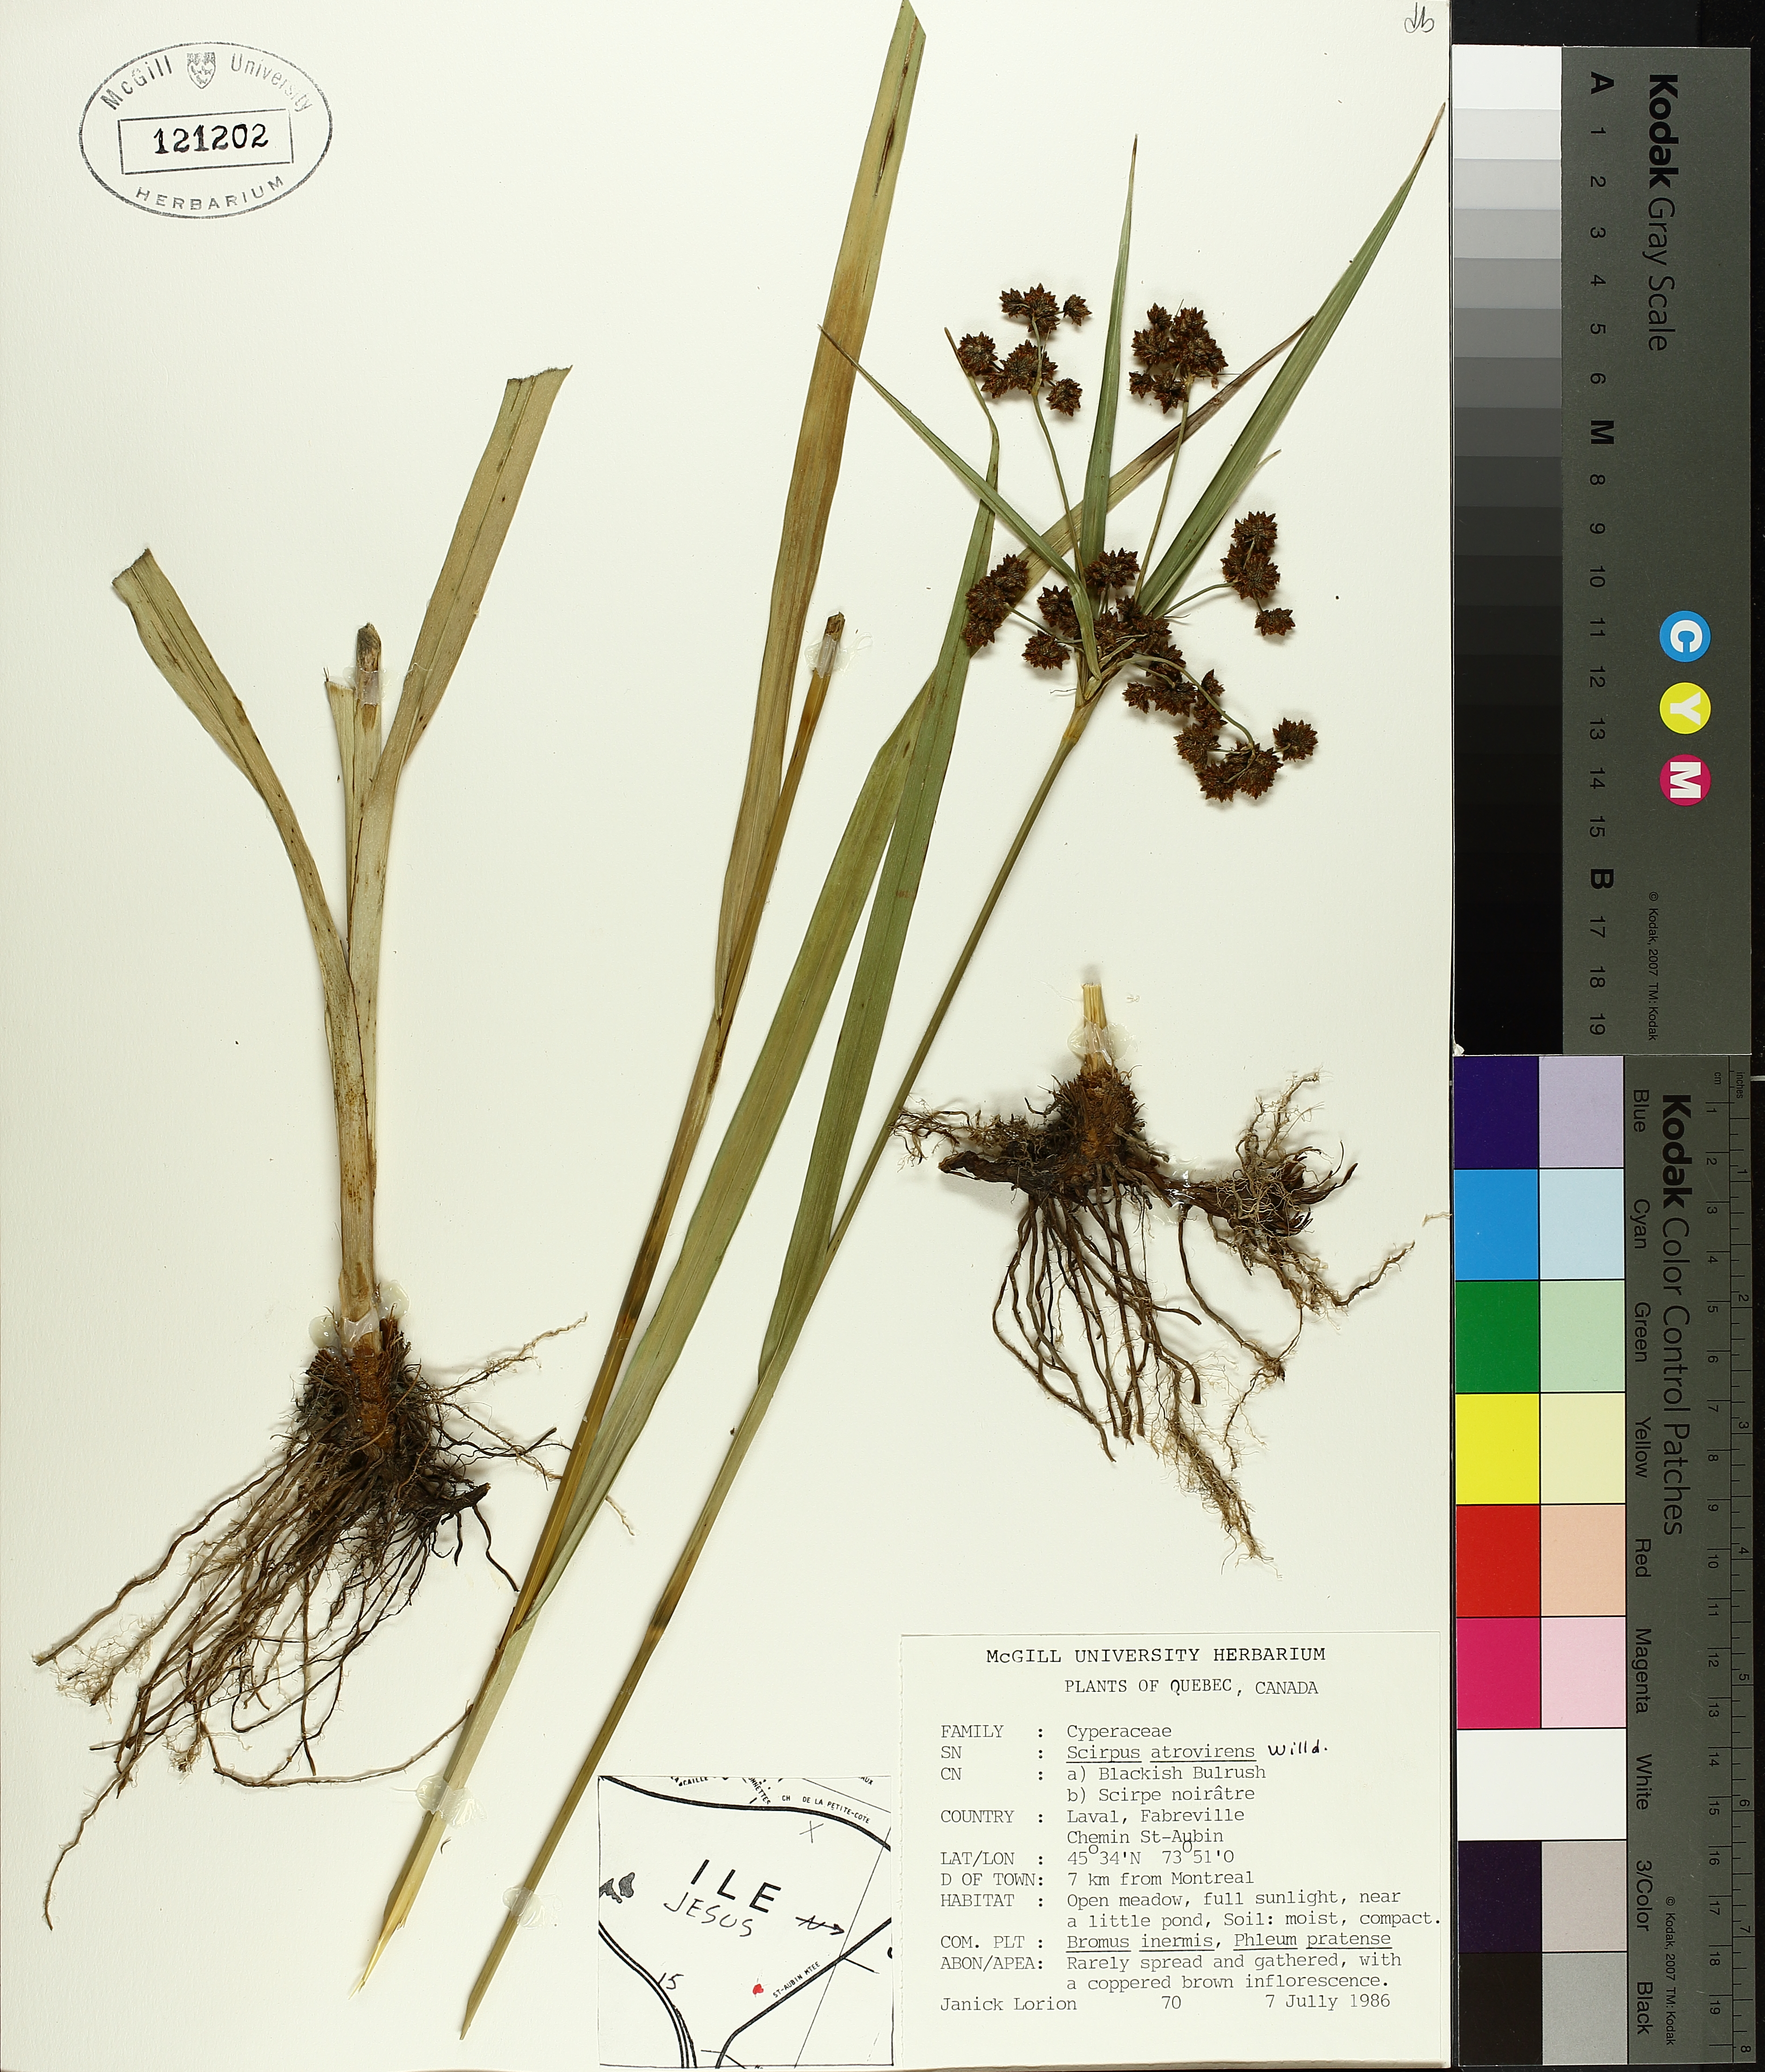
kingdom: Plantae
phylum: Tracheophyta
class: Liliopsida
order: Poales
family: Cyperaceae
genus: Scirpus
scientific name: Scirpus atrovirens
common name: Black bulrush
